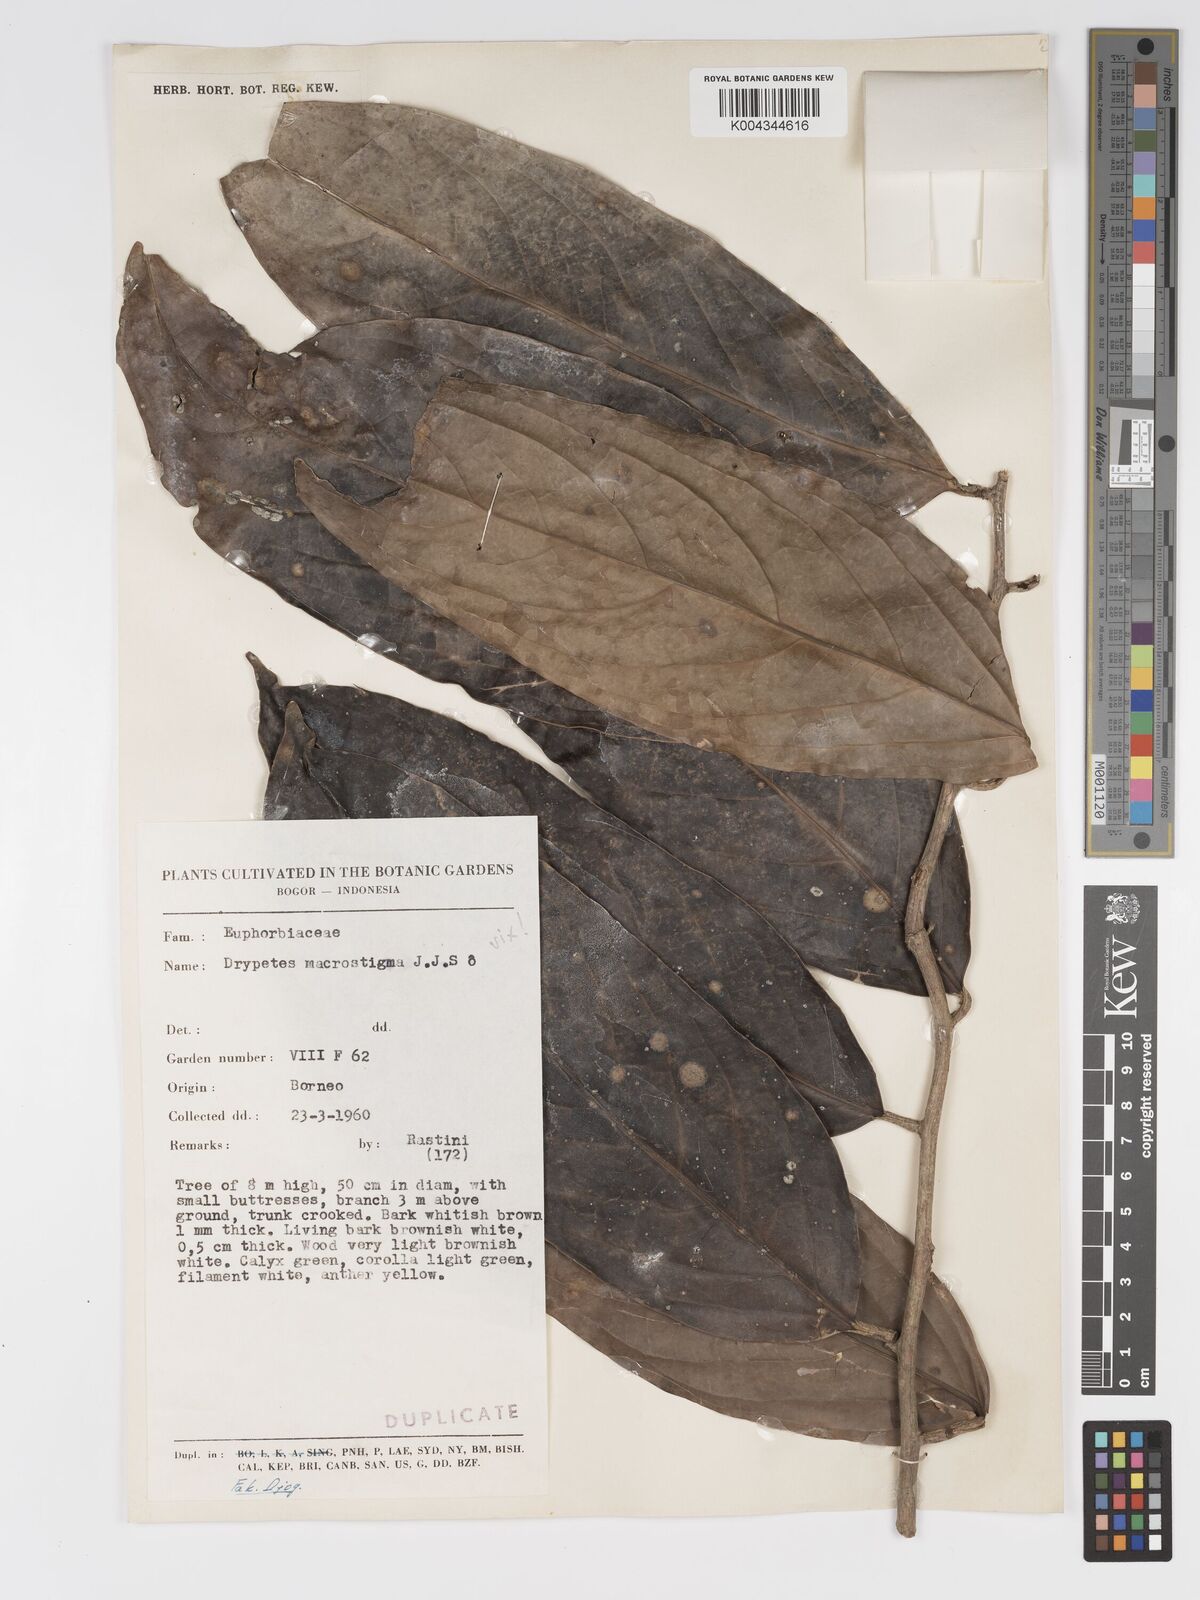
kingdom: Plantae
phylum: Tracheophyta
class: Magnoliopsida
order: Malpighiales
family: Putranjivaceae
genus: Drypetes
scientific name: Drypetes longifolia
